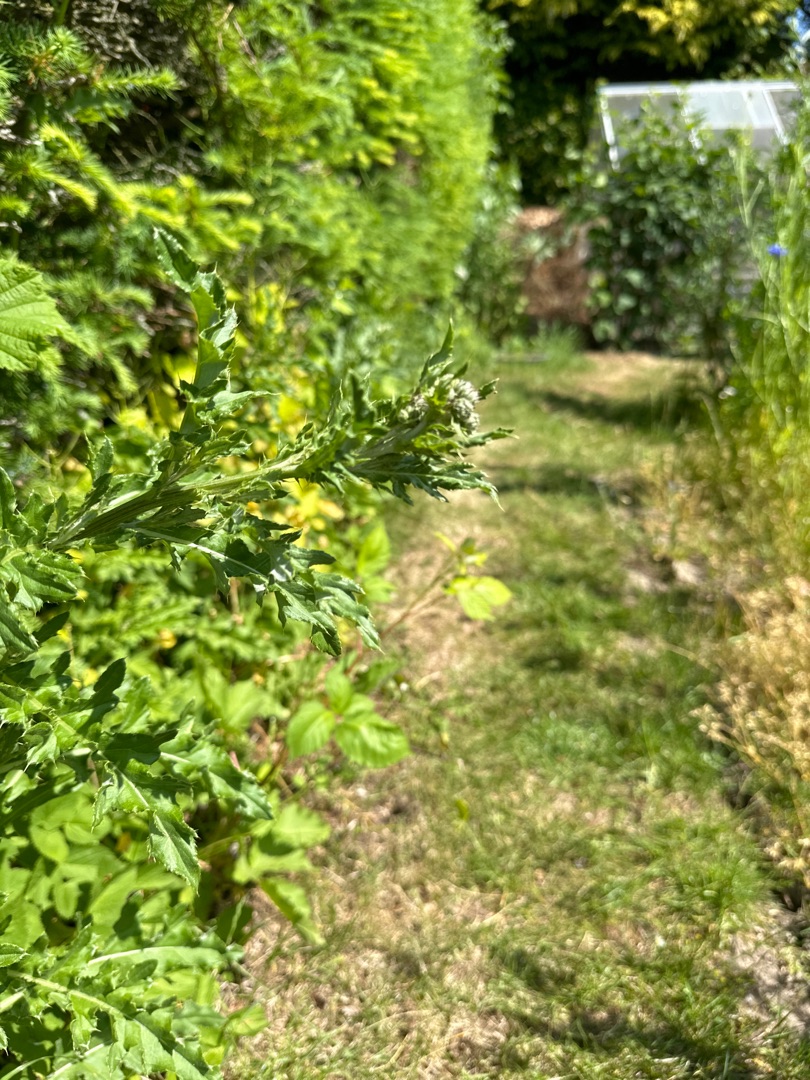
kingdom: Plantae
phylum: Tracheophyta
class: Magnoliopsida
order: Asterales
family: Asteraceae
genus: Cirsium
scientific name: Cirsium arvense
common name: Ager-tidsel
